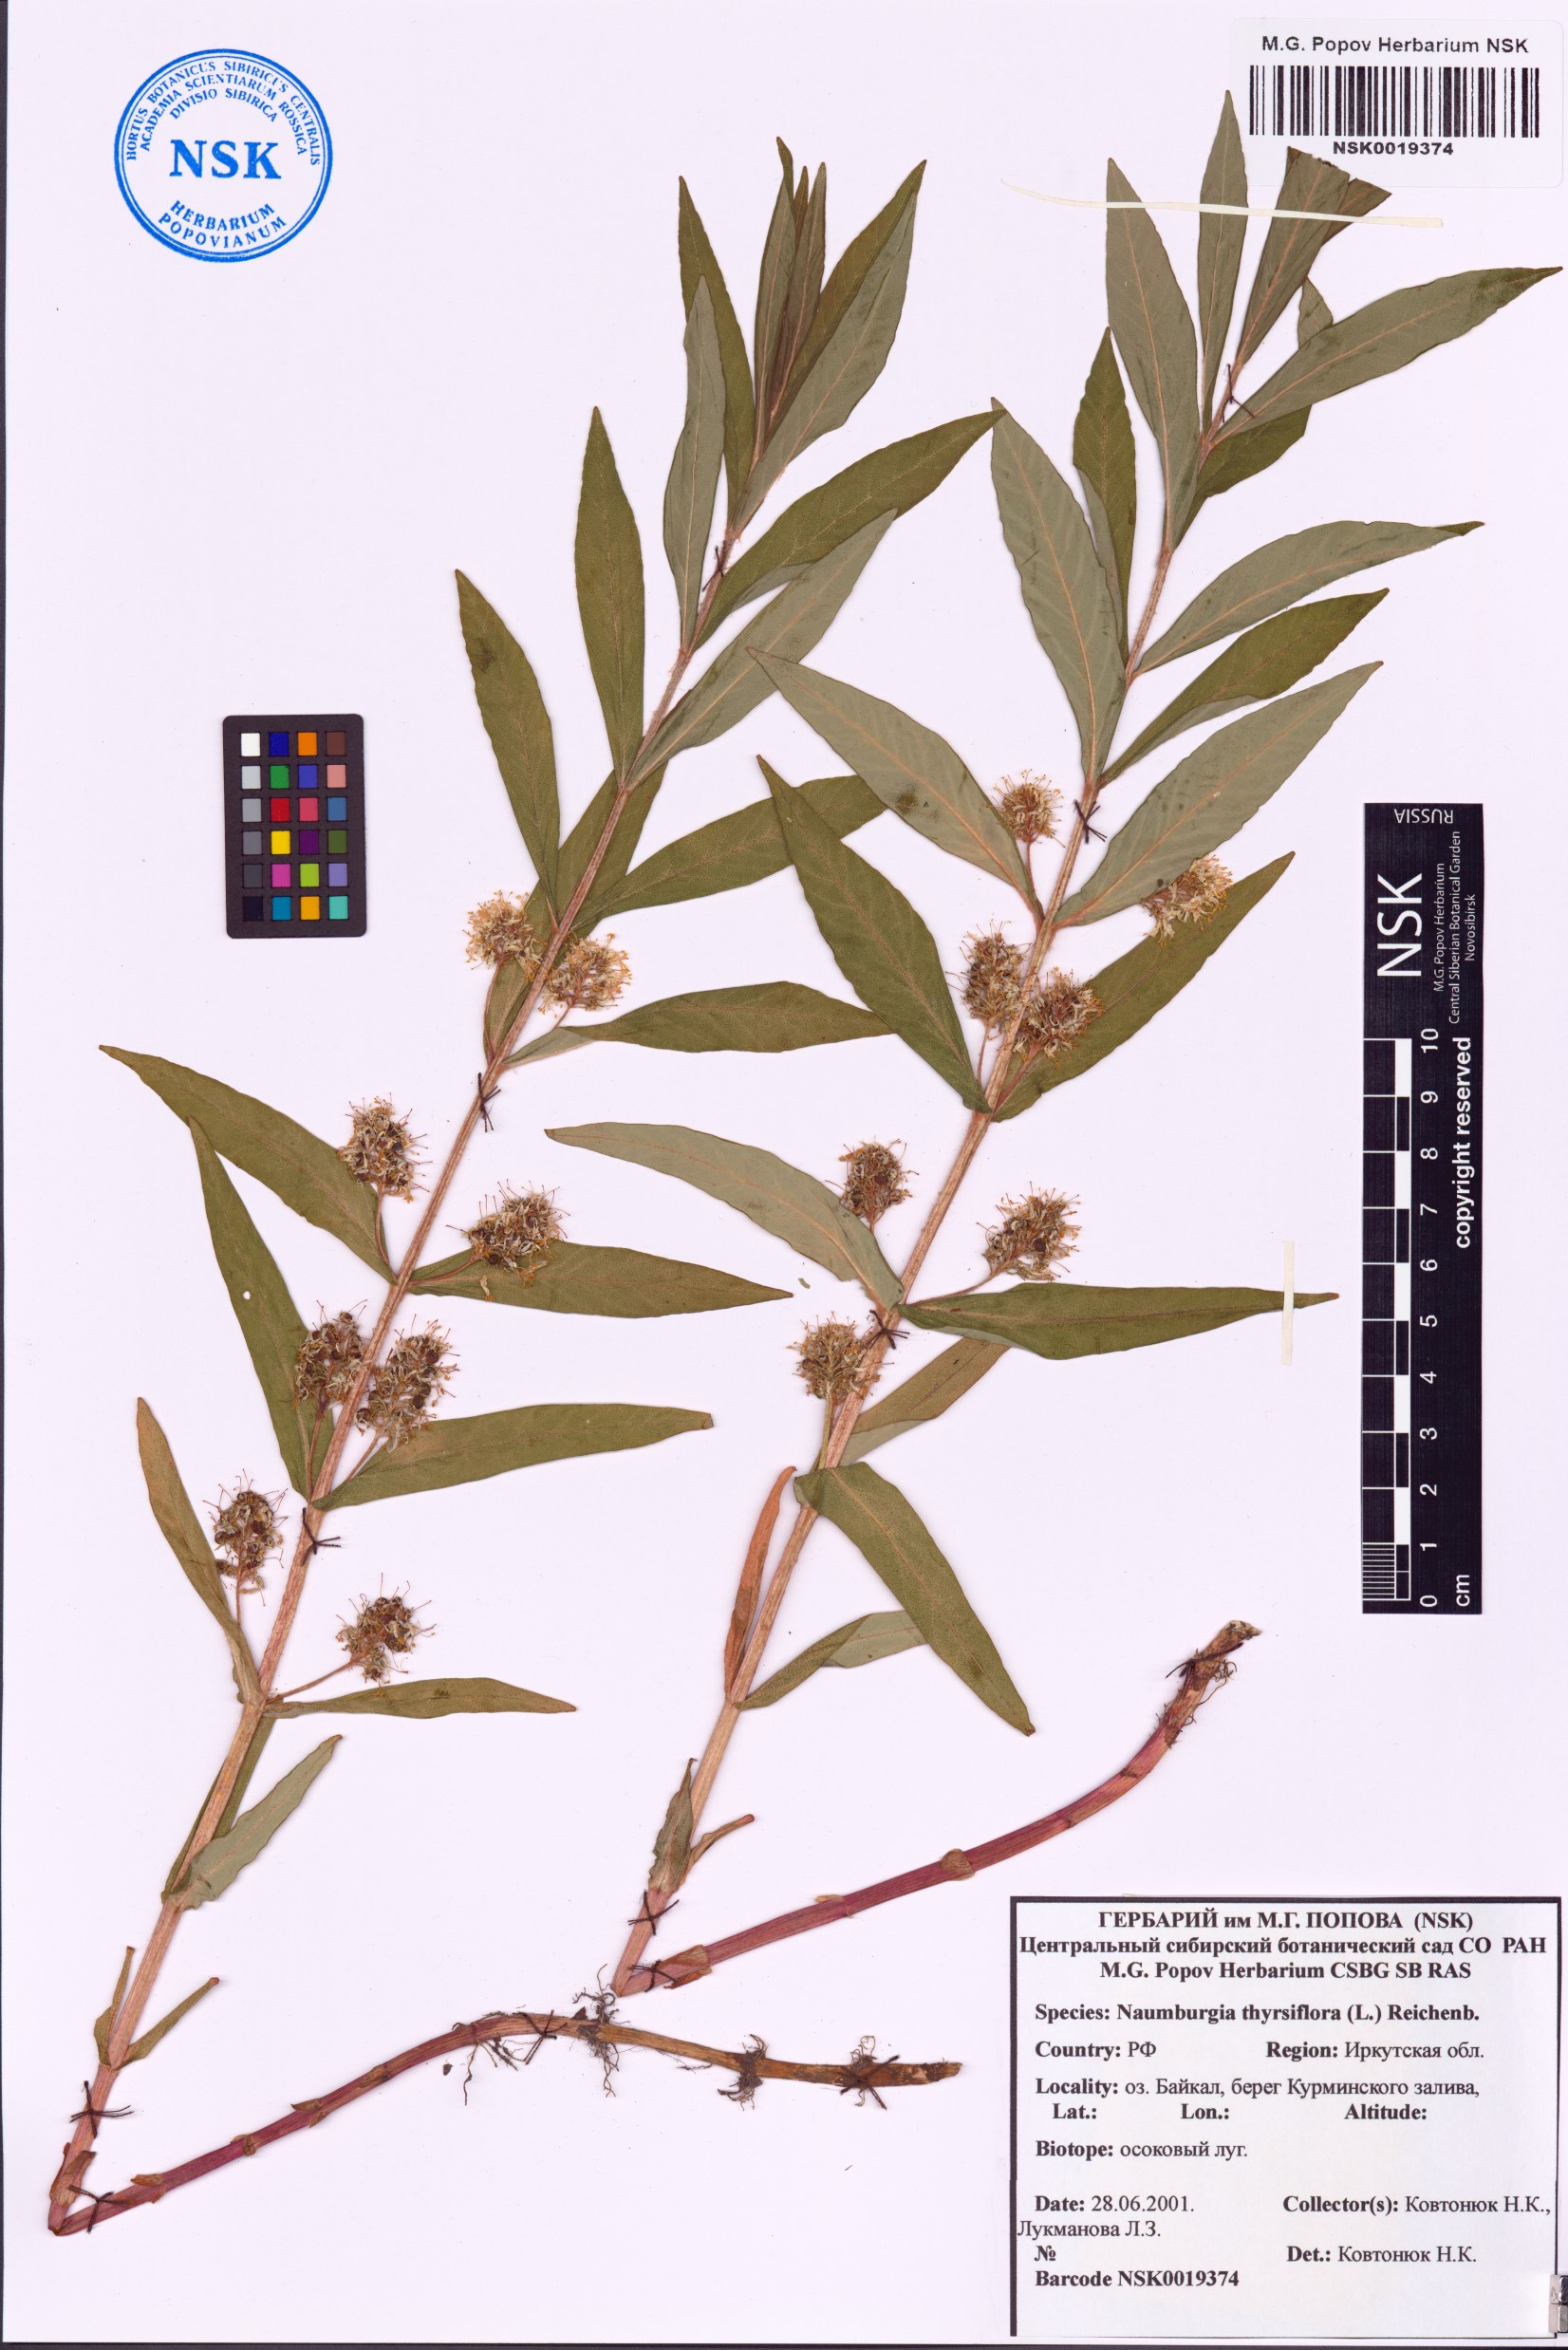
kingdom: Plantae
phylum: Tracheophyta
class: Magnoliopsida
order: Ericales
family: Primulaceae
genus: Lysimachia
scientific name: Lysimachia thyrsiflora
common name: Tufted loosestrife
